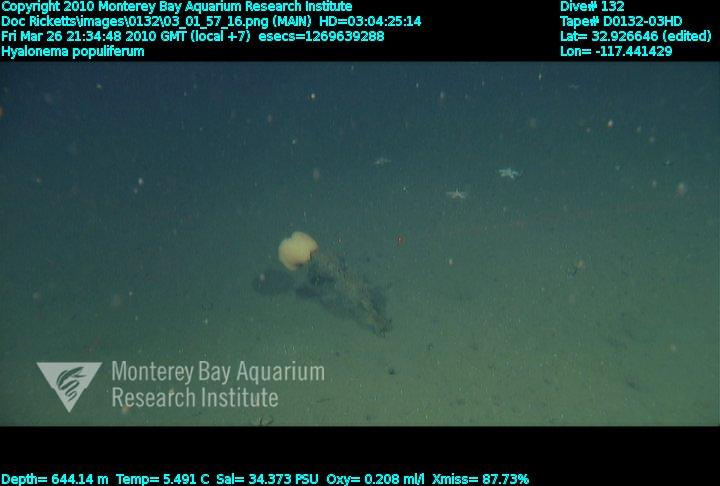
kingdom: Animalia
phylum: Porifera
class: Hexactinellida
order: Amphidiscosida
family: Hyalonematidae
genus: Hyalonema
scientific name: Hyalonema populiferum
